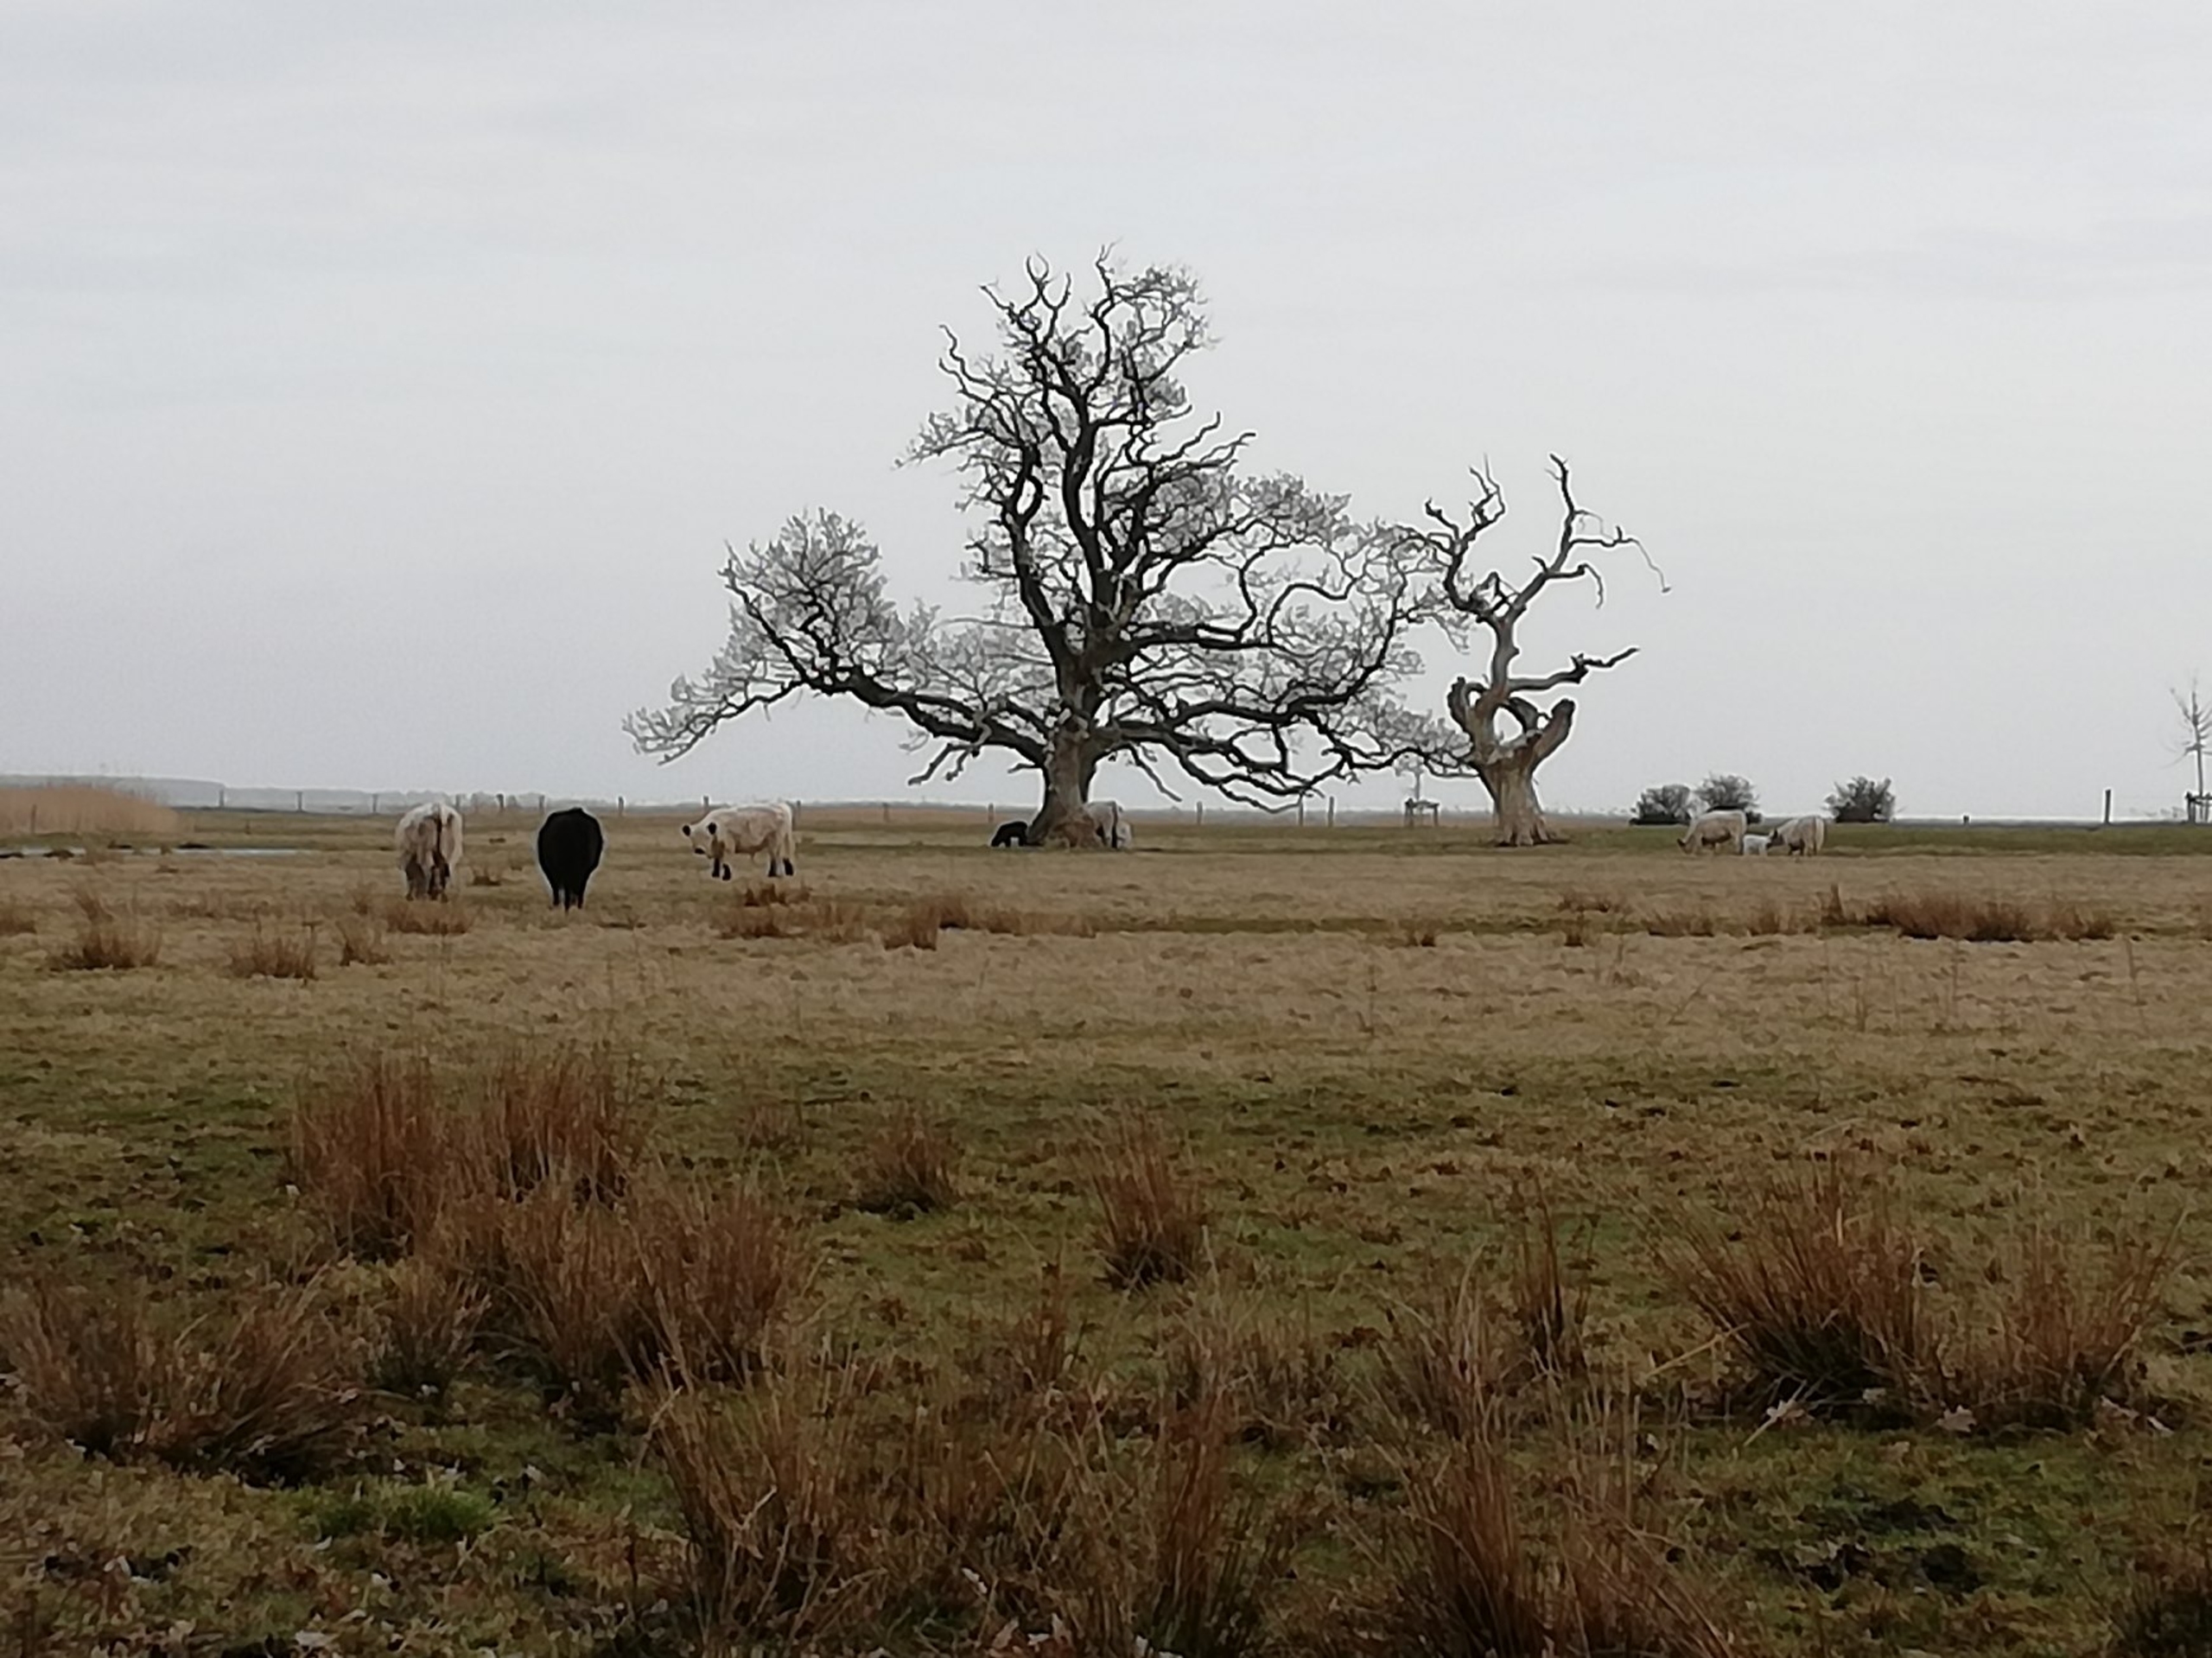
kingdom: Plantae
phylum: Tracheophyta
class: Magnoliopsida
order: Fagales
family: Fagaceae
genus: Quercus
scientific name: Quercus robur
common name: Stilk-eg/almindelig eg
